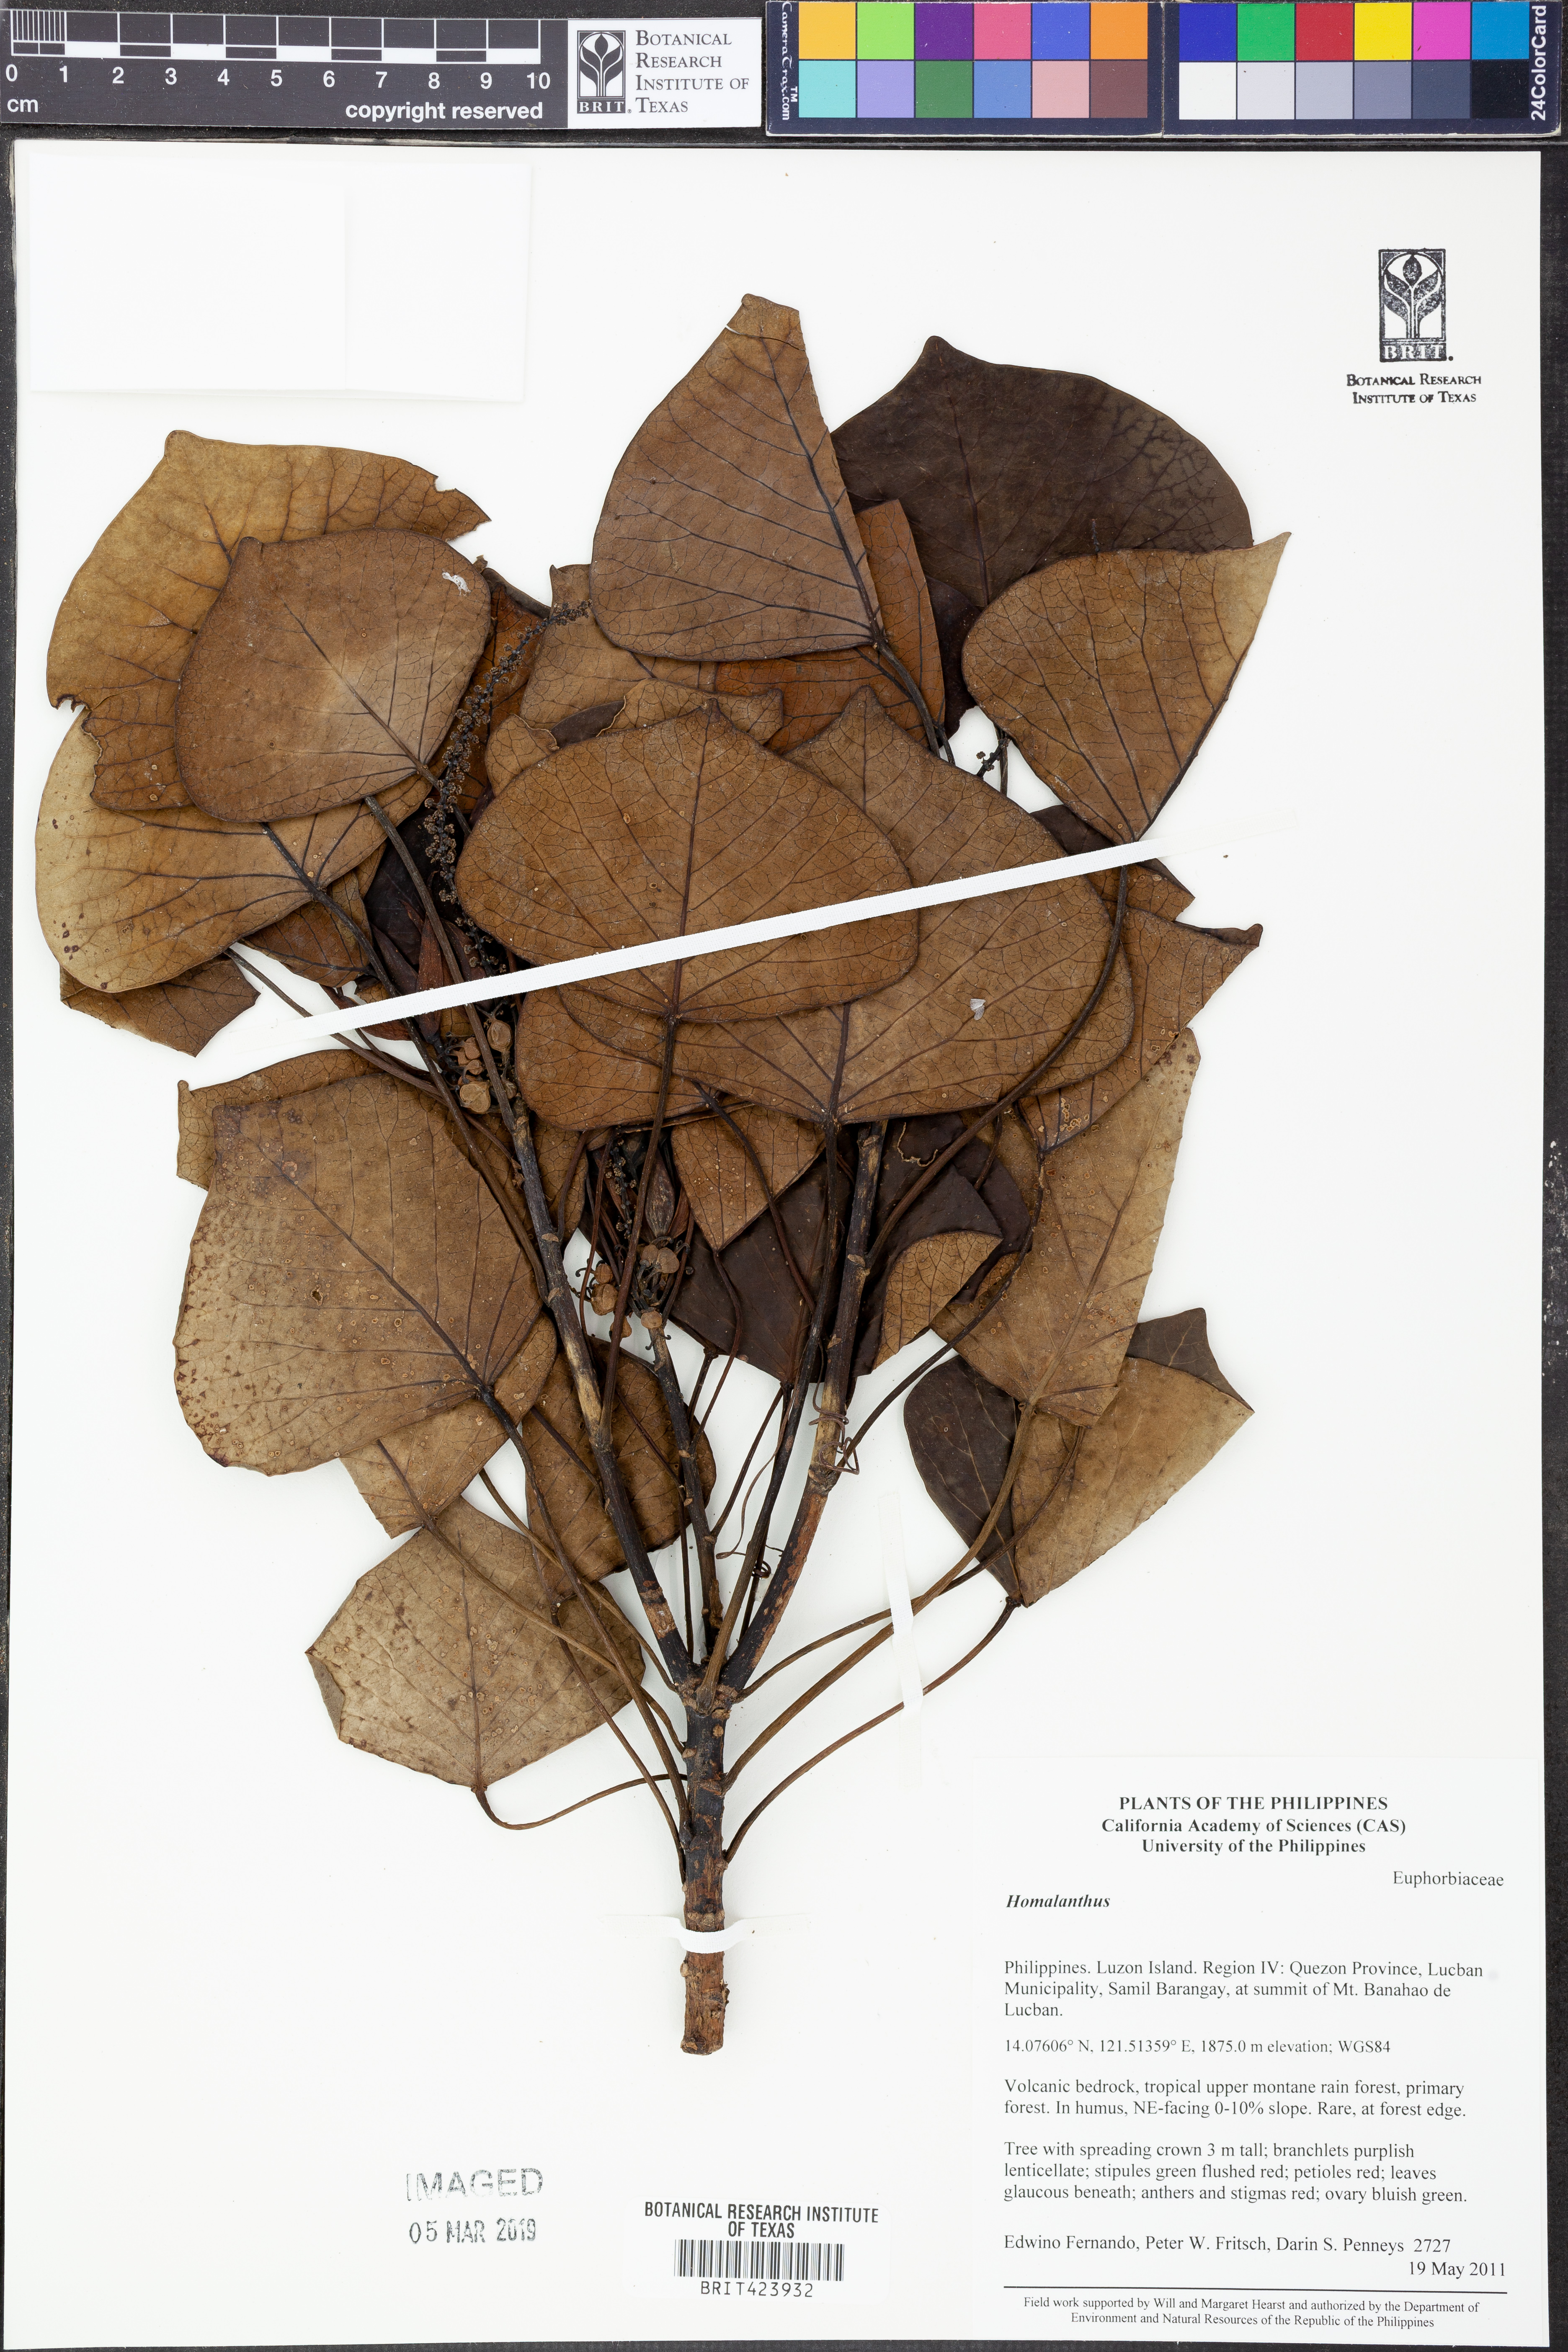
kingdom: Plantae
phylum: Tracheophyta
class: Magnoliopsida
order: Malpighiales
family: Euphorbiaceae
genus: Homalanthus
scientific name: Homalanthus
